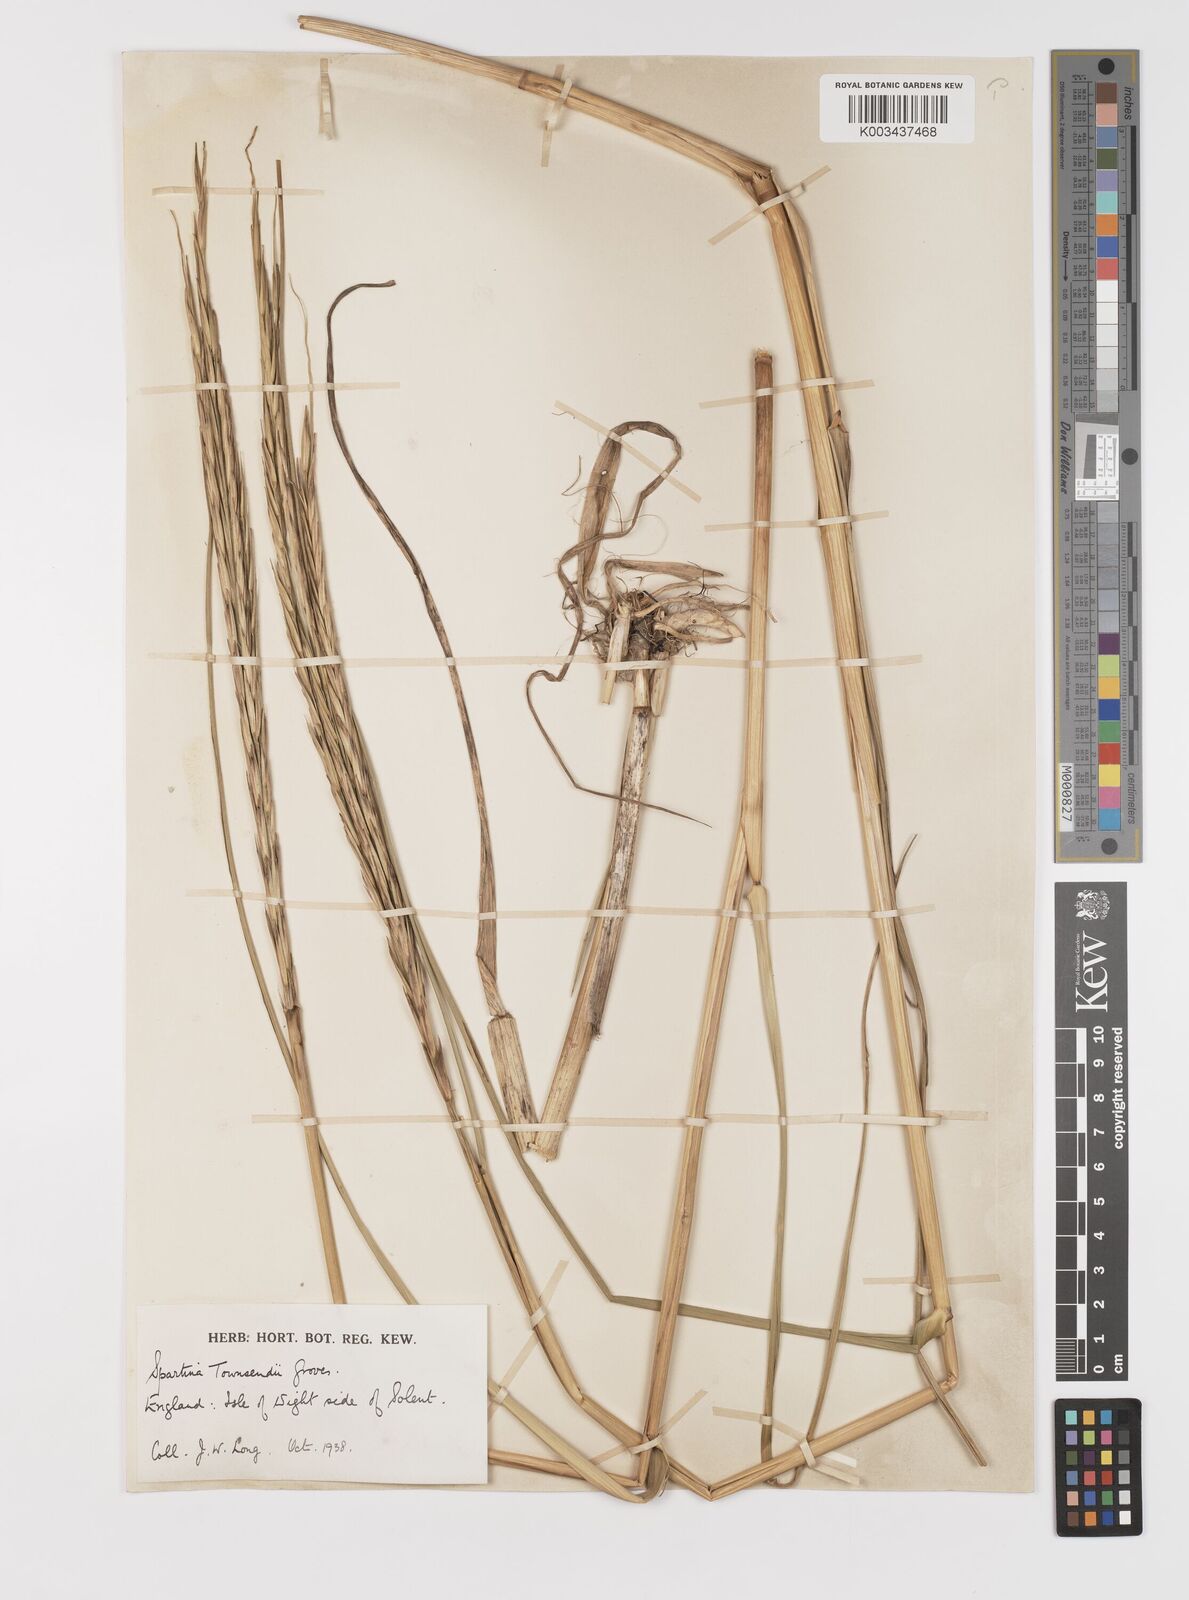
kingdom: Plantae
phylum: Tracheophyta
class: Liliopsida
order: Poales
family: Poaceae
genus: Sporobolus
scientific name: Sporobolus anglicus
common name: English cordgrass
